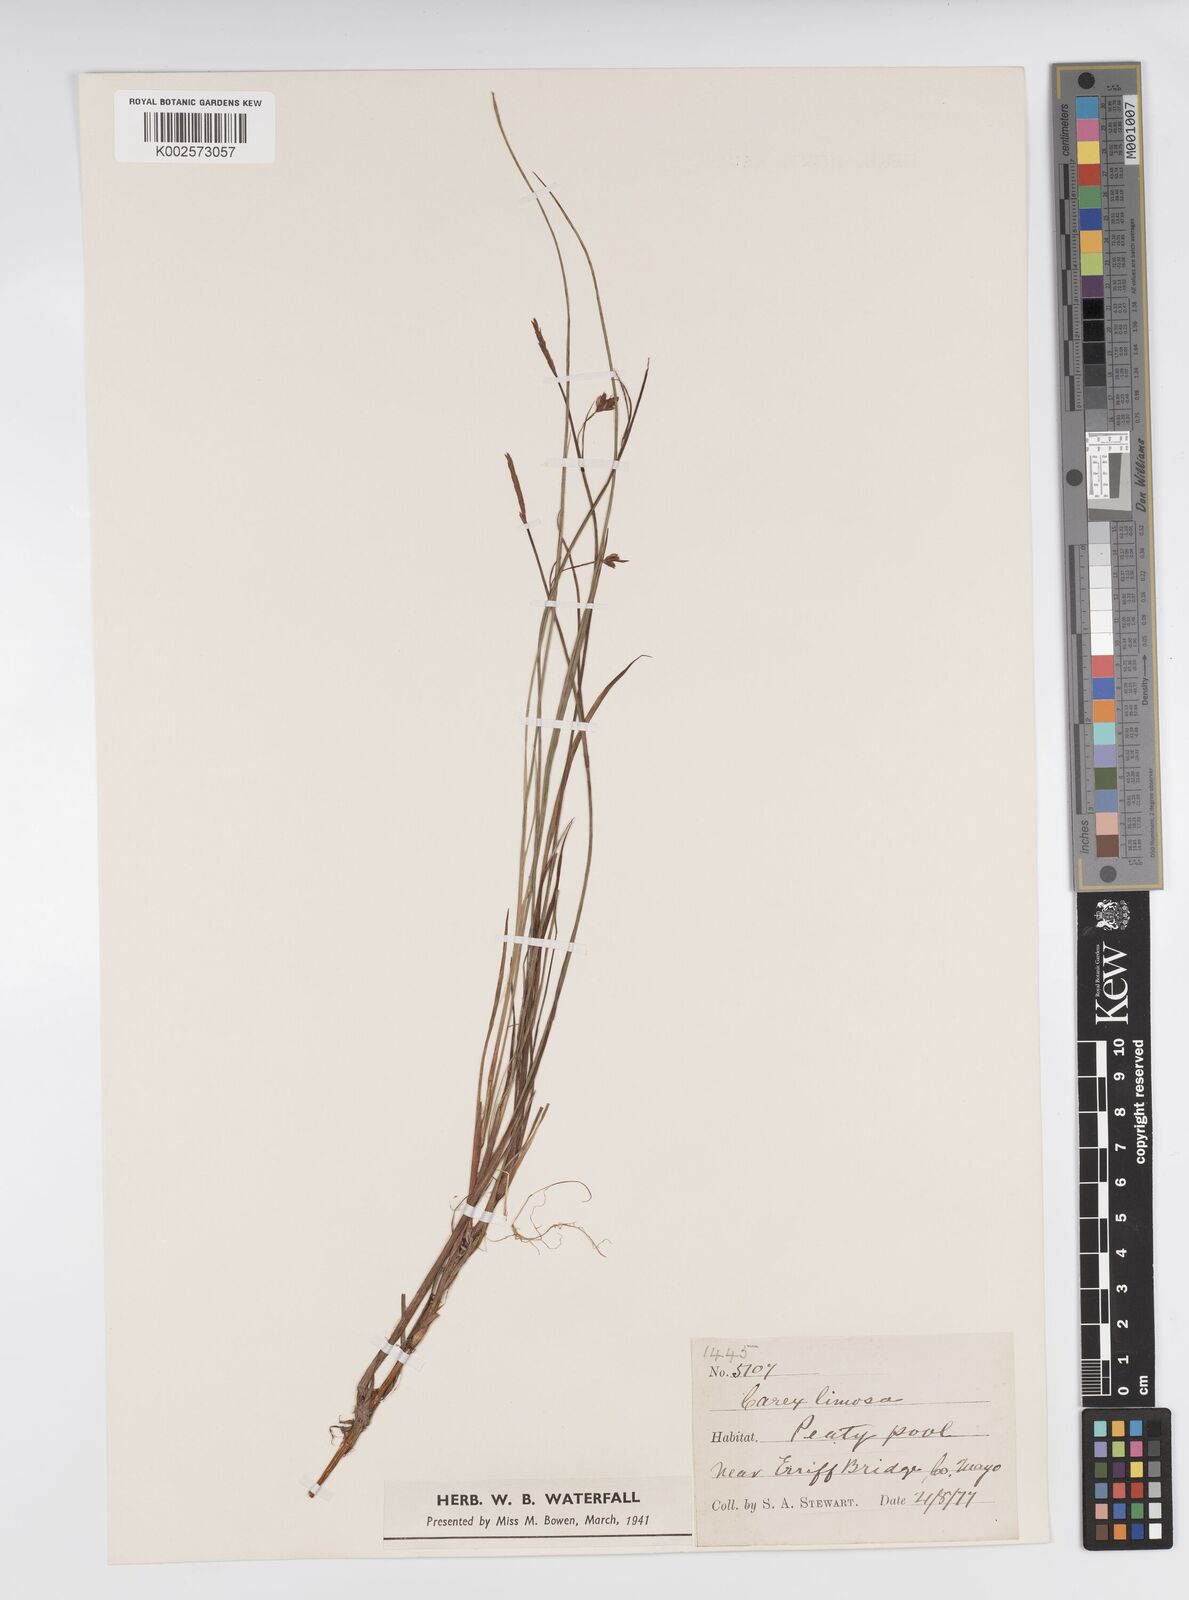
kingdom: Plantae
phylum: Tracheophyta
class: Liliopsida
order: Poales
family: Cyperaceae
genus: Carex
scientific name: Carex limosa
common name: Bog sedge
